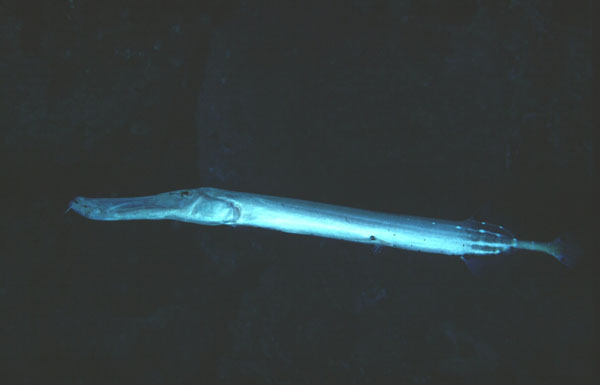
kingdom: Animalia
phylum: Chordata
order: Syngnathiformes
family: Aulostomidae
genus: Aulostomus
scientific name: Aulostomus chinensis
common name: Chinese trumpetfish
